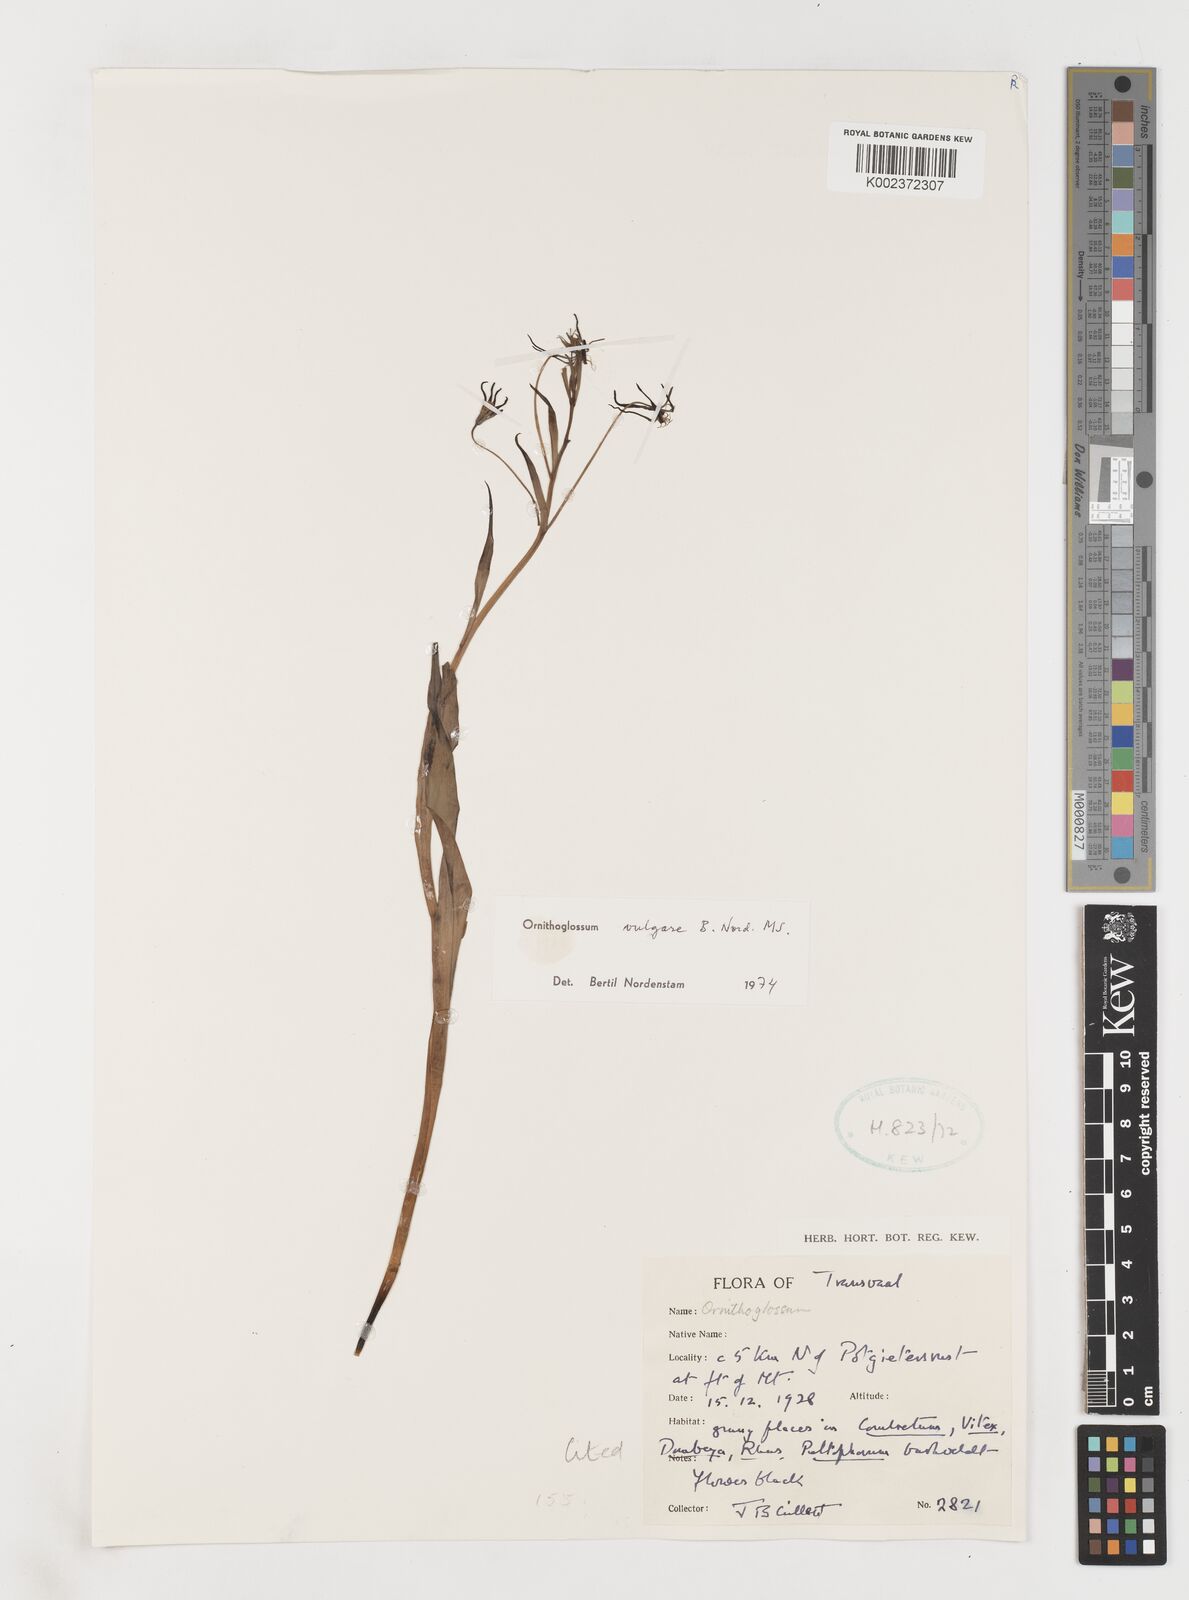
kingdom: Plantae
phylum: Tracheophyta
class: Liliopsida
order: Liliales
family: Colchicaceae
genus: Ornithoglossum
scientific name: Ornithoglossum vulgare
